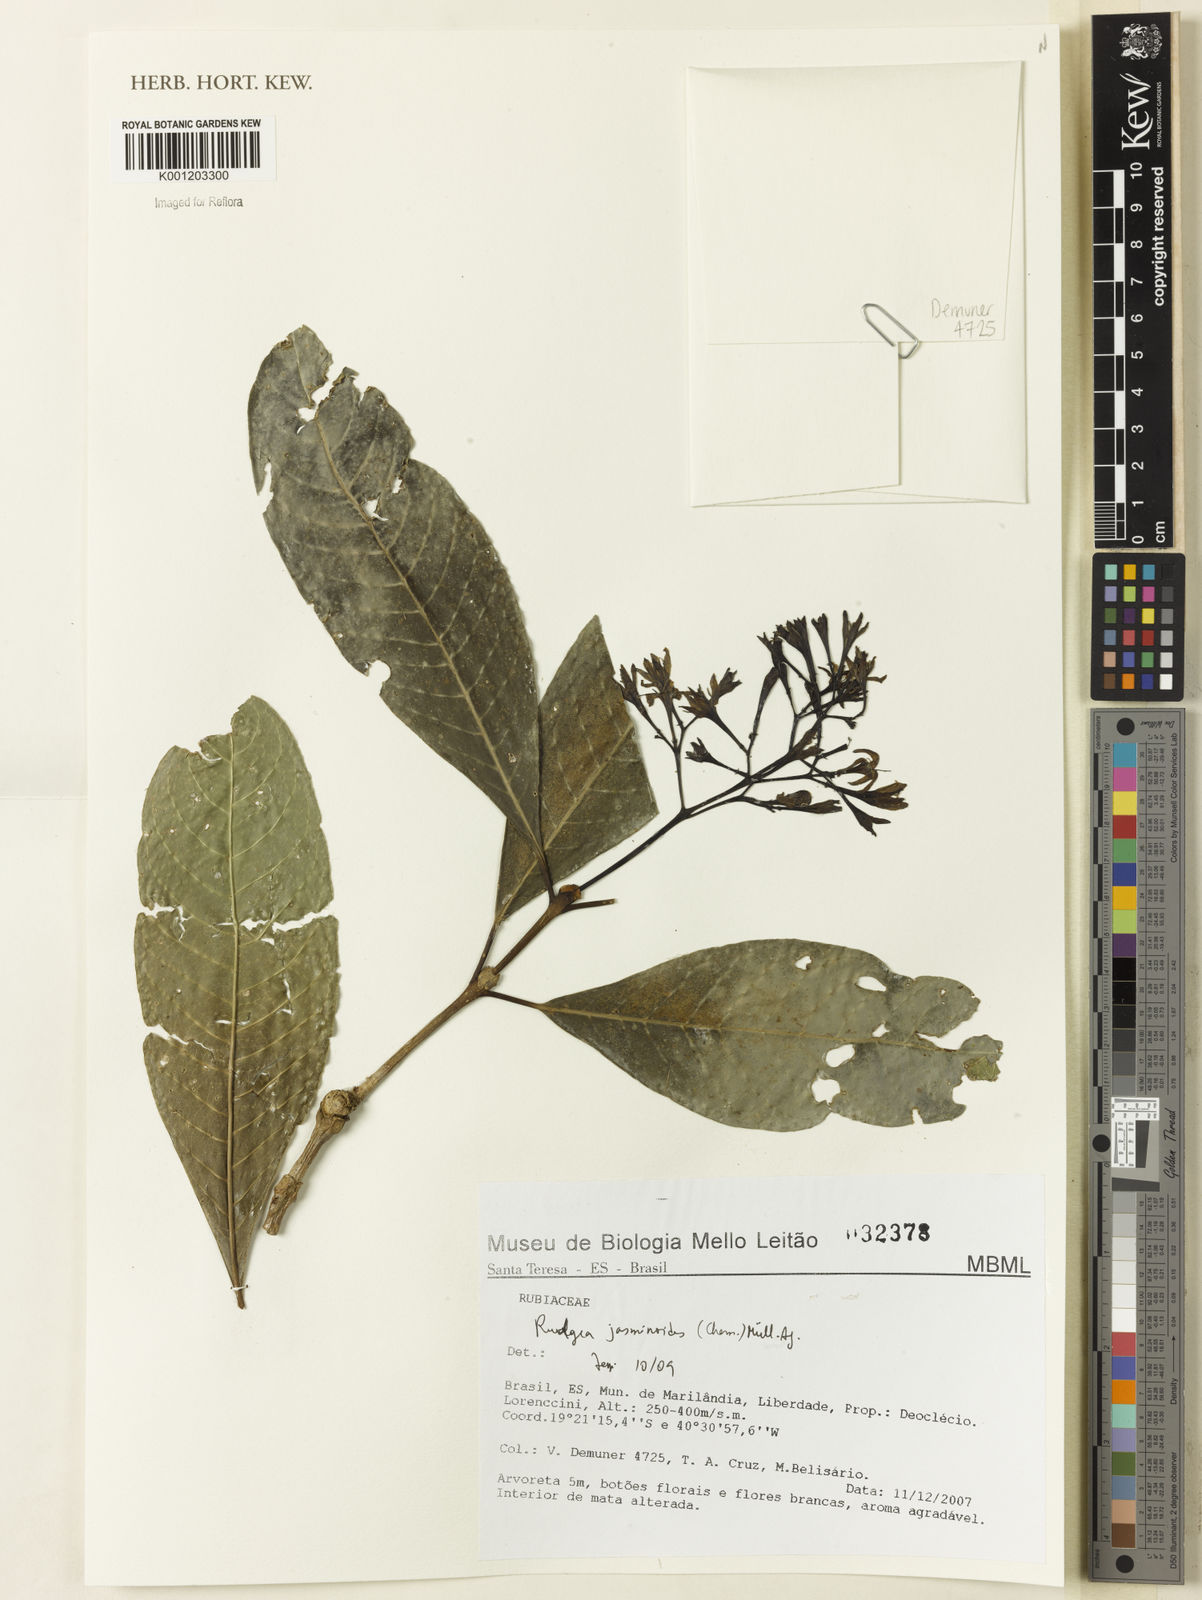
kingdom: Plantae
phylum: Tracheophyta
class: Magnoliopsida
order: Gentianales
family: Rubiaceae
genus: Rudgea
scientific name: Rudgea
